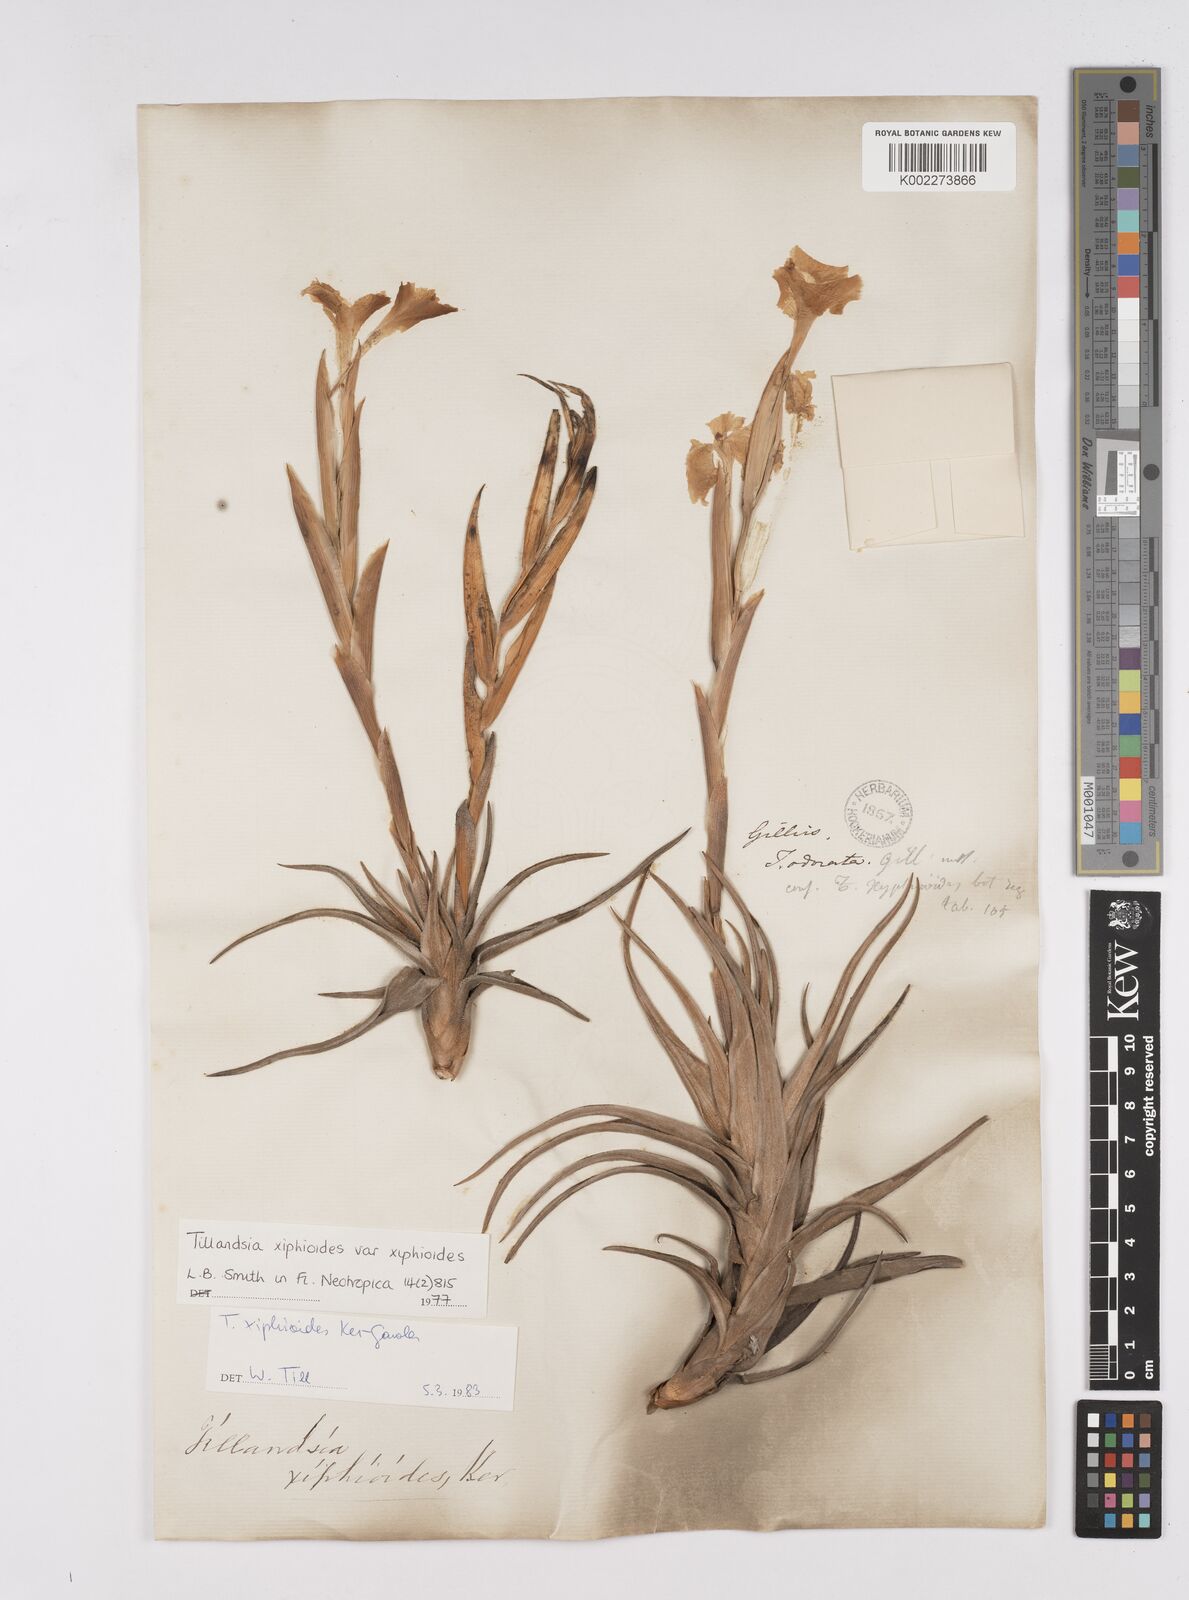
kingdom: Plantae
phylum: Tracheophyta
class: Liliopsida
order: Poales
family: Bromeliaceae
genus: Tillandsia
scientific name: Tillandsia xiphioides
